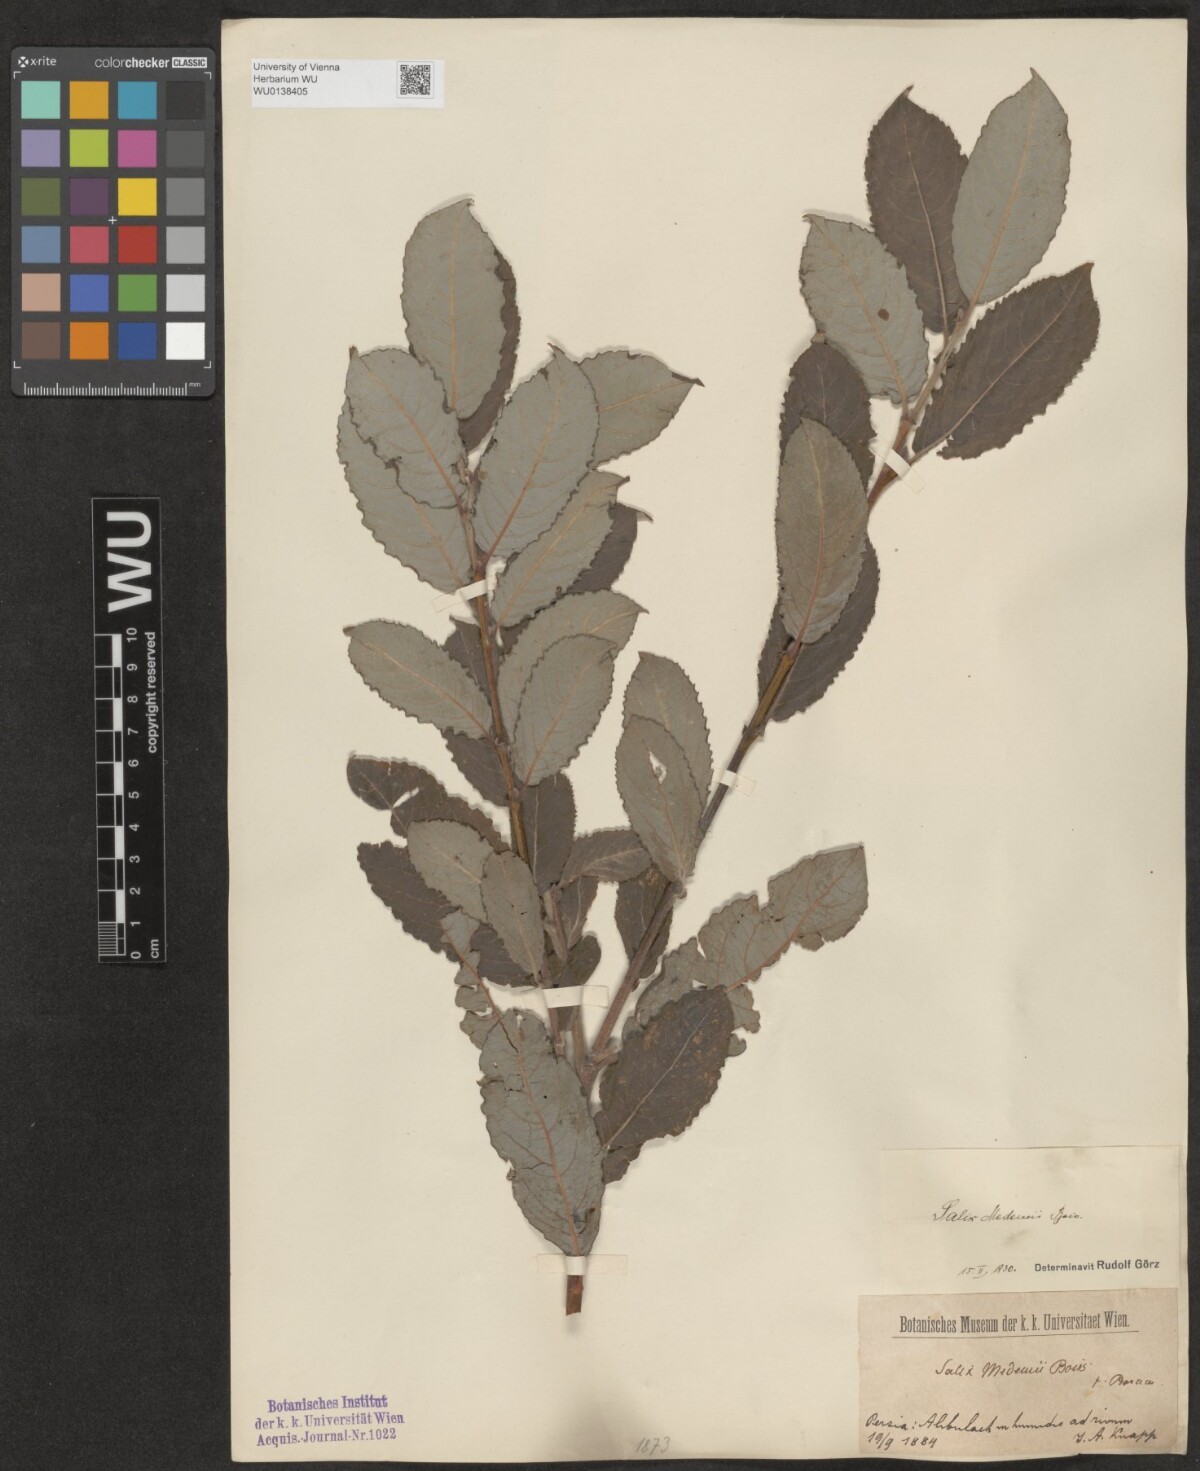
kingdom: Plantae
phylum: Tracheophyta
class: Magnoliopsida
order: Malpighiales
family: Salicaceae
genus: Salix
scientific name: Salix aegyptiaca
